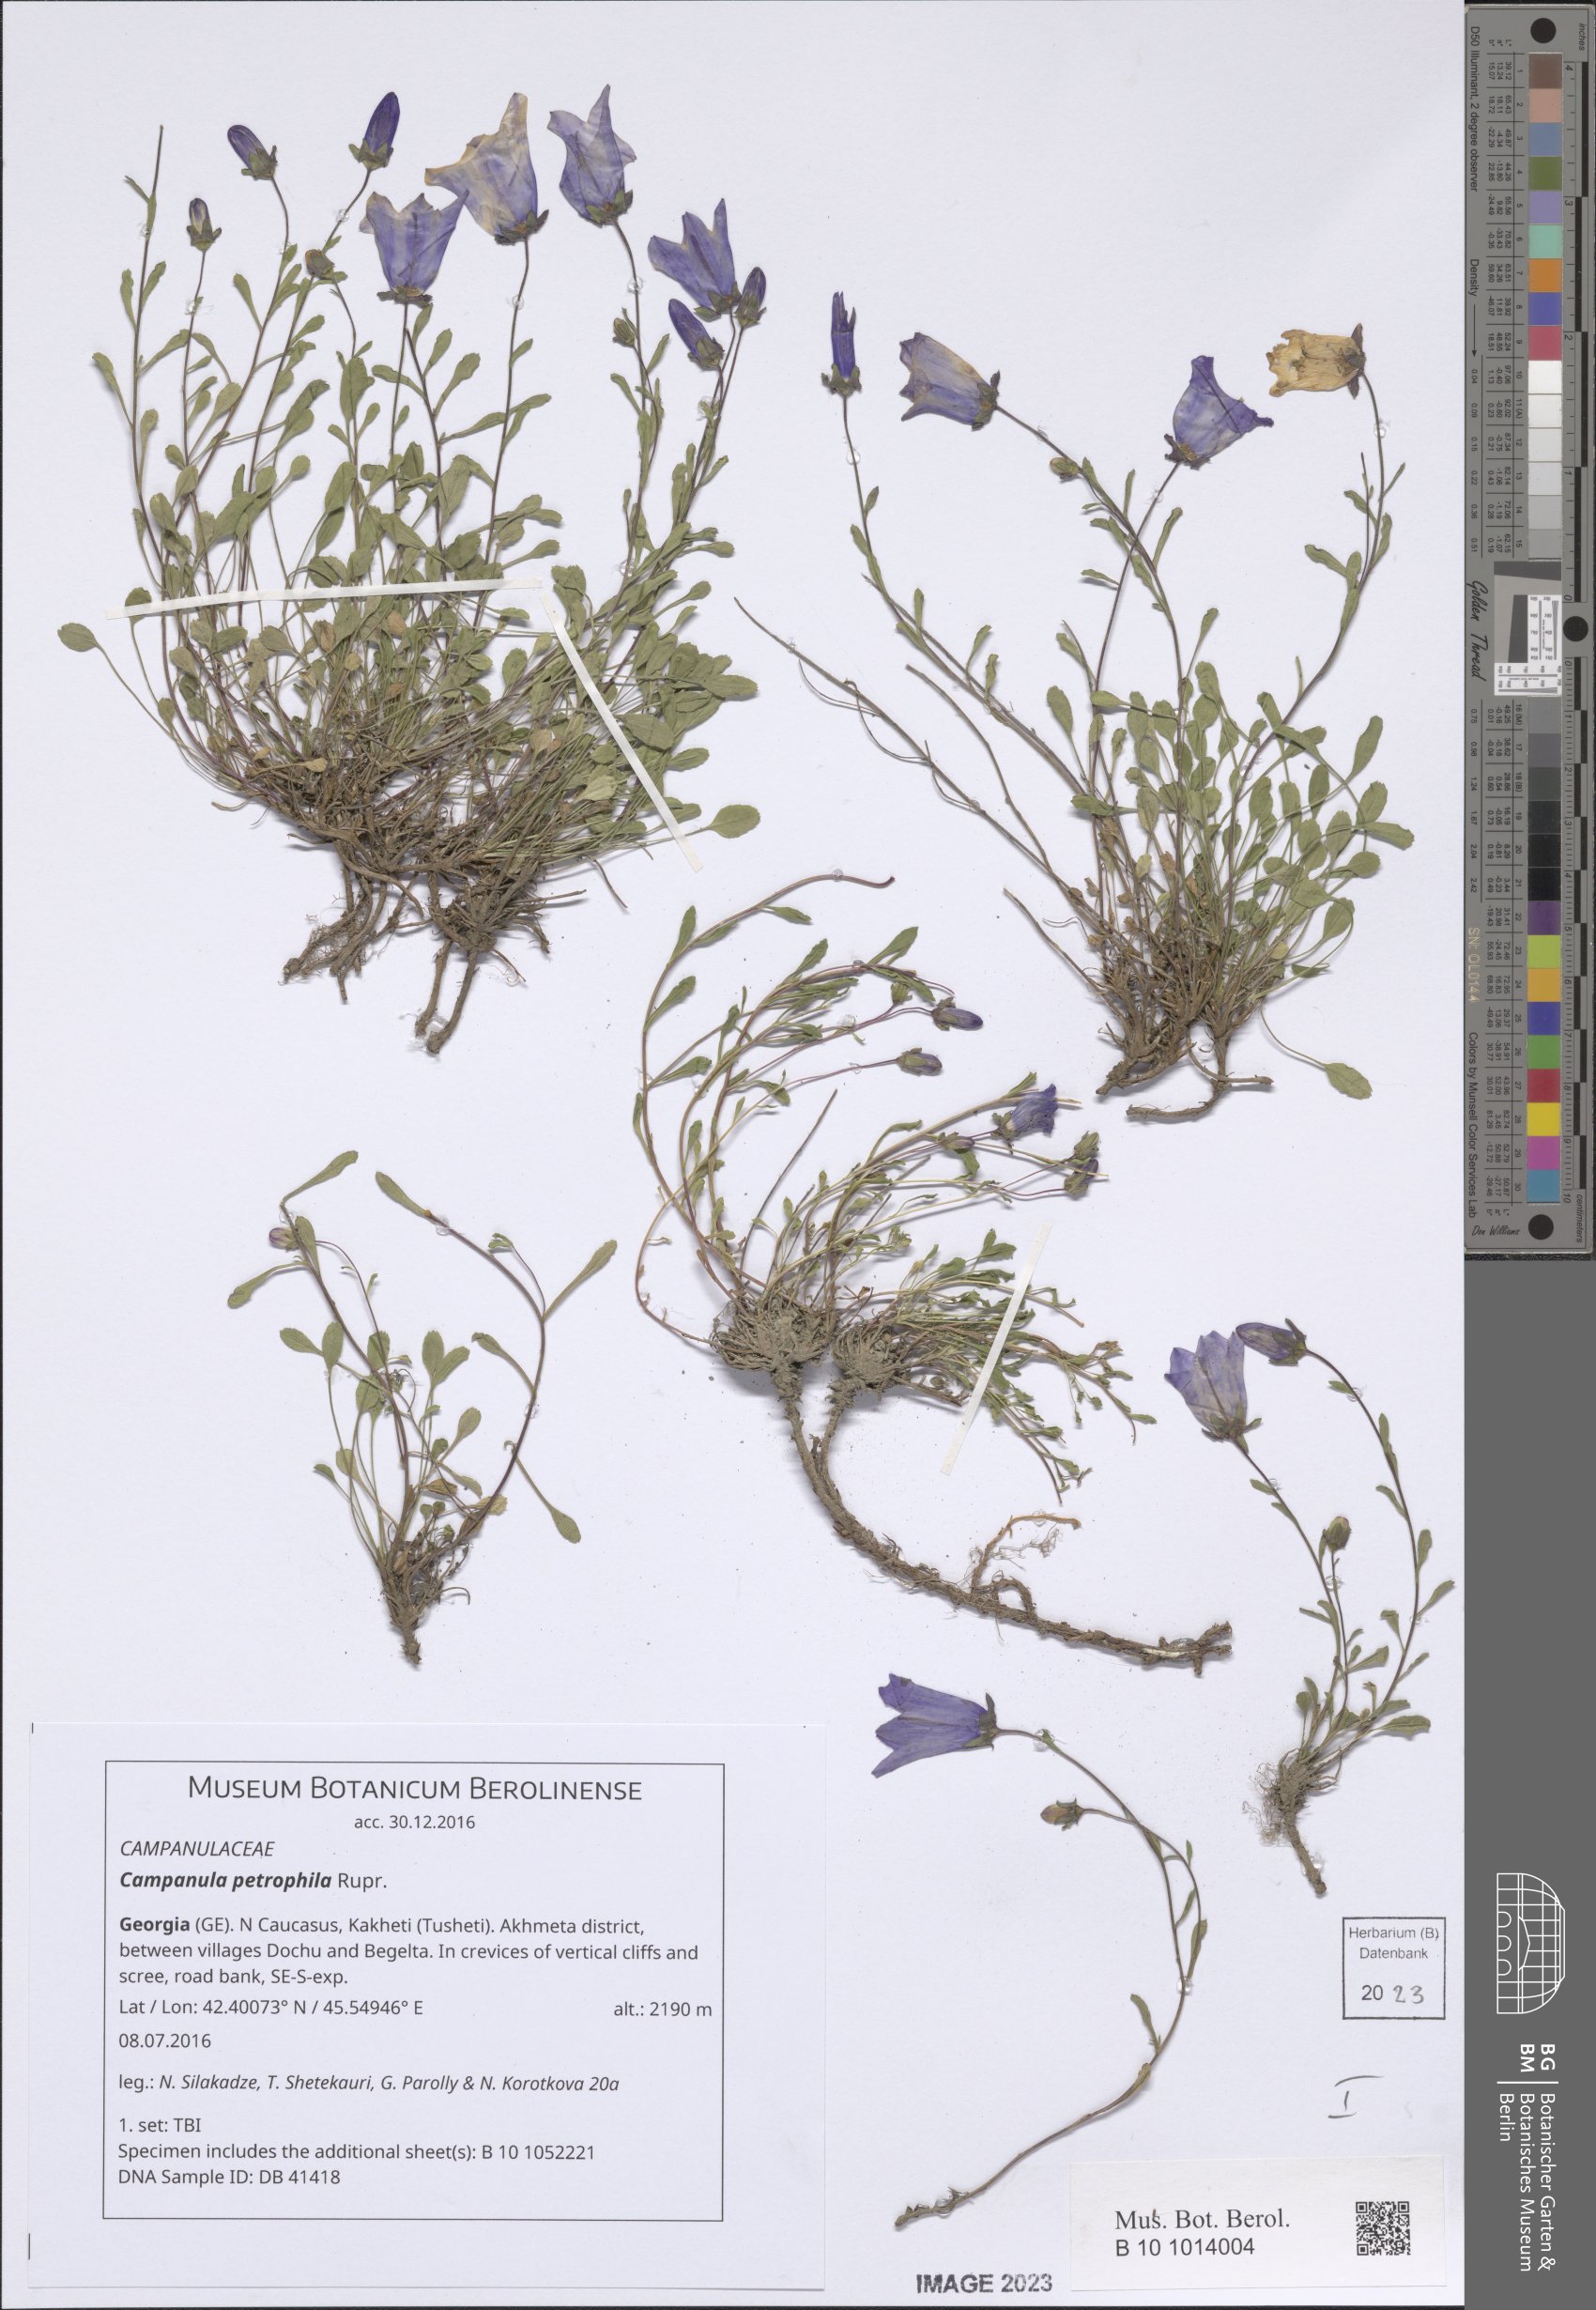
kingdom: Plantae
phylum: Tracheophyta
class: Magnoliopsida
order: Asterales
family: Campanulaceae
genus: Campanula
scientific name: Campanula petrophila
